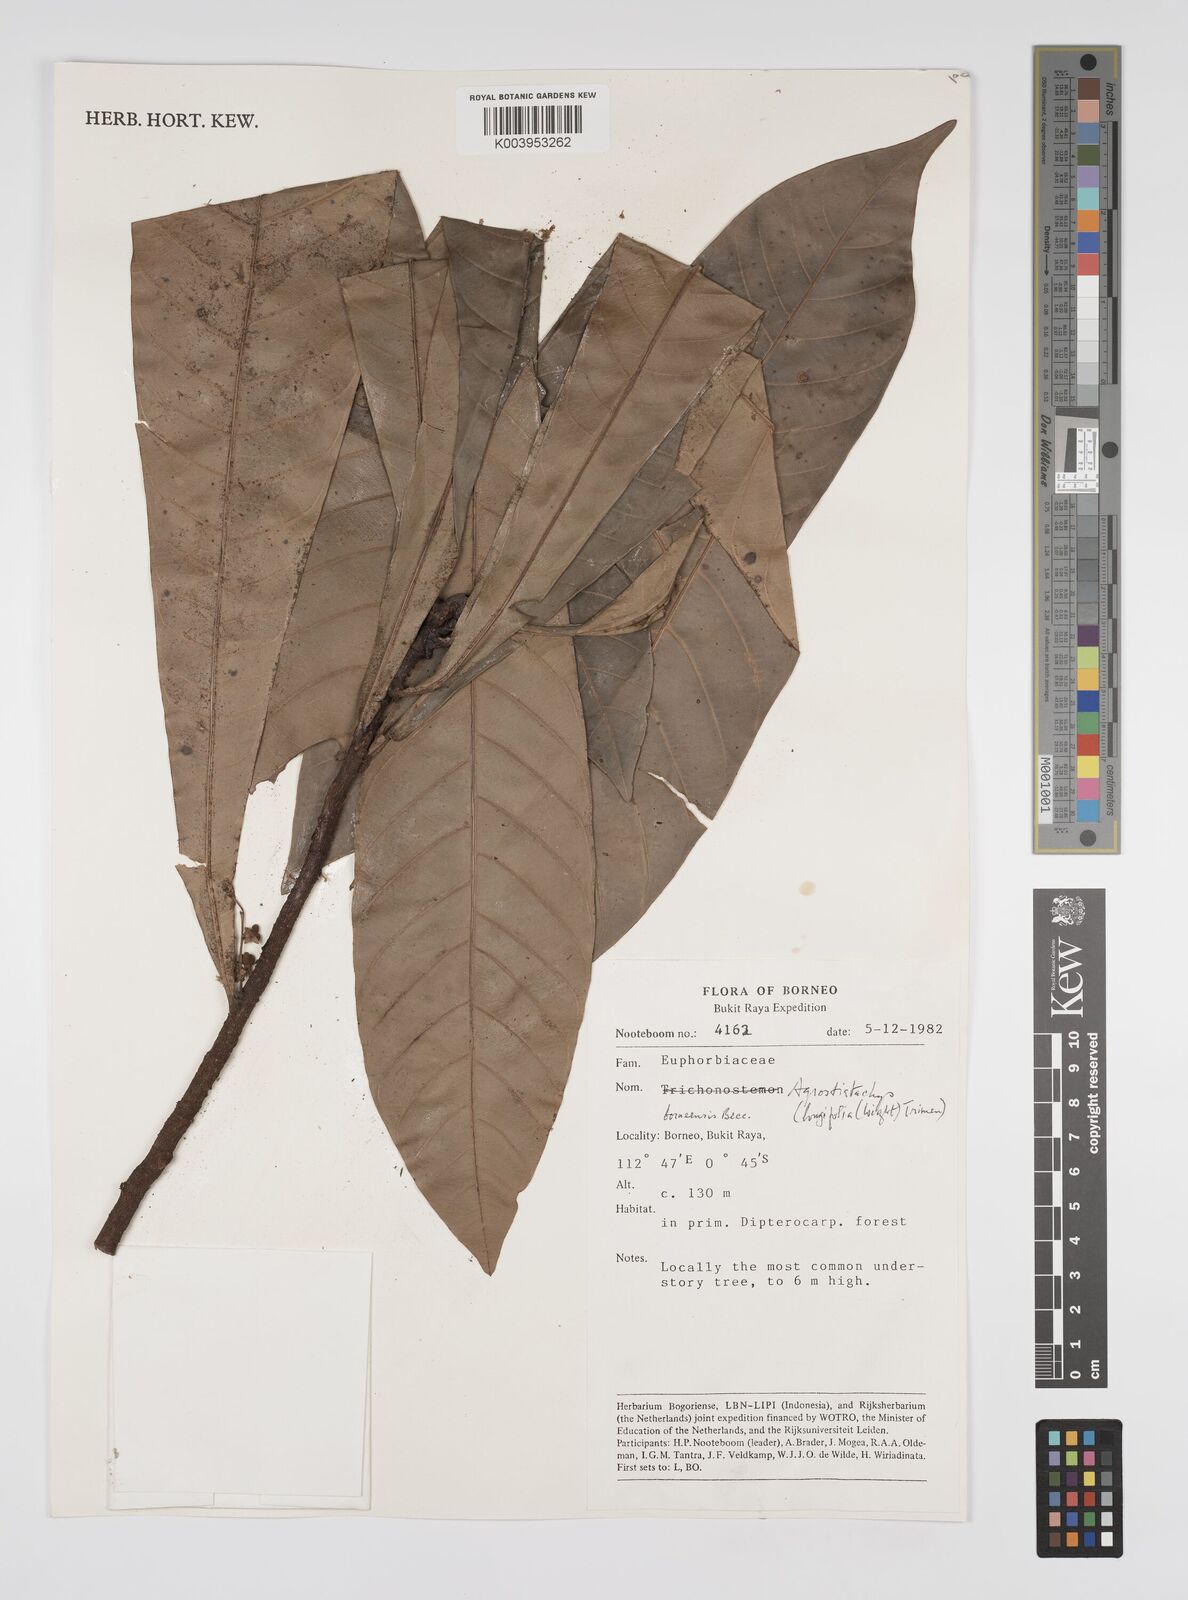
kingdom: Plantae
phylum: Tracheophyta
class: Magnoliopsida
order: Malpighiales
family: Euphorbiaceae
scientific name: Euphorbiaceae
